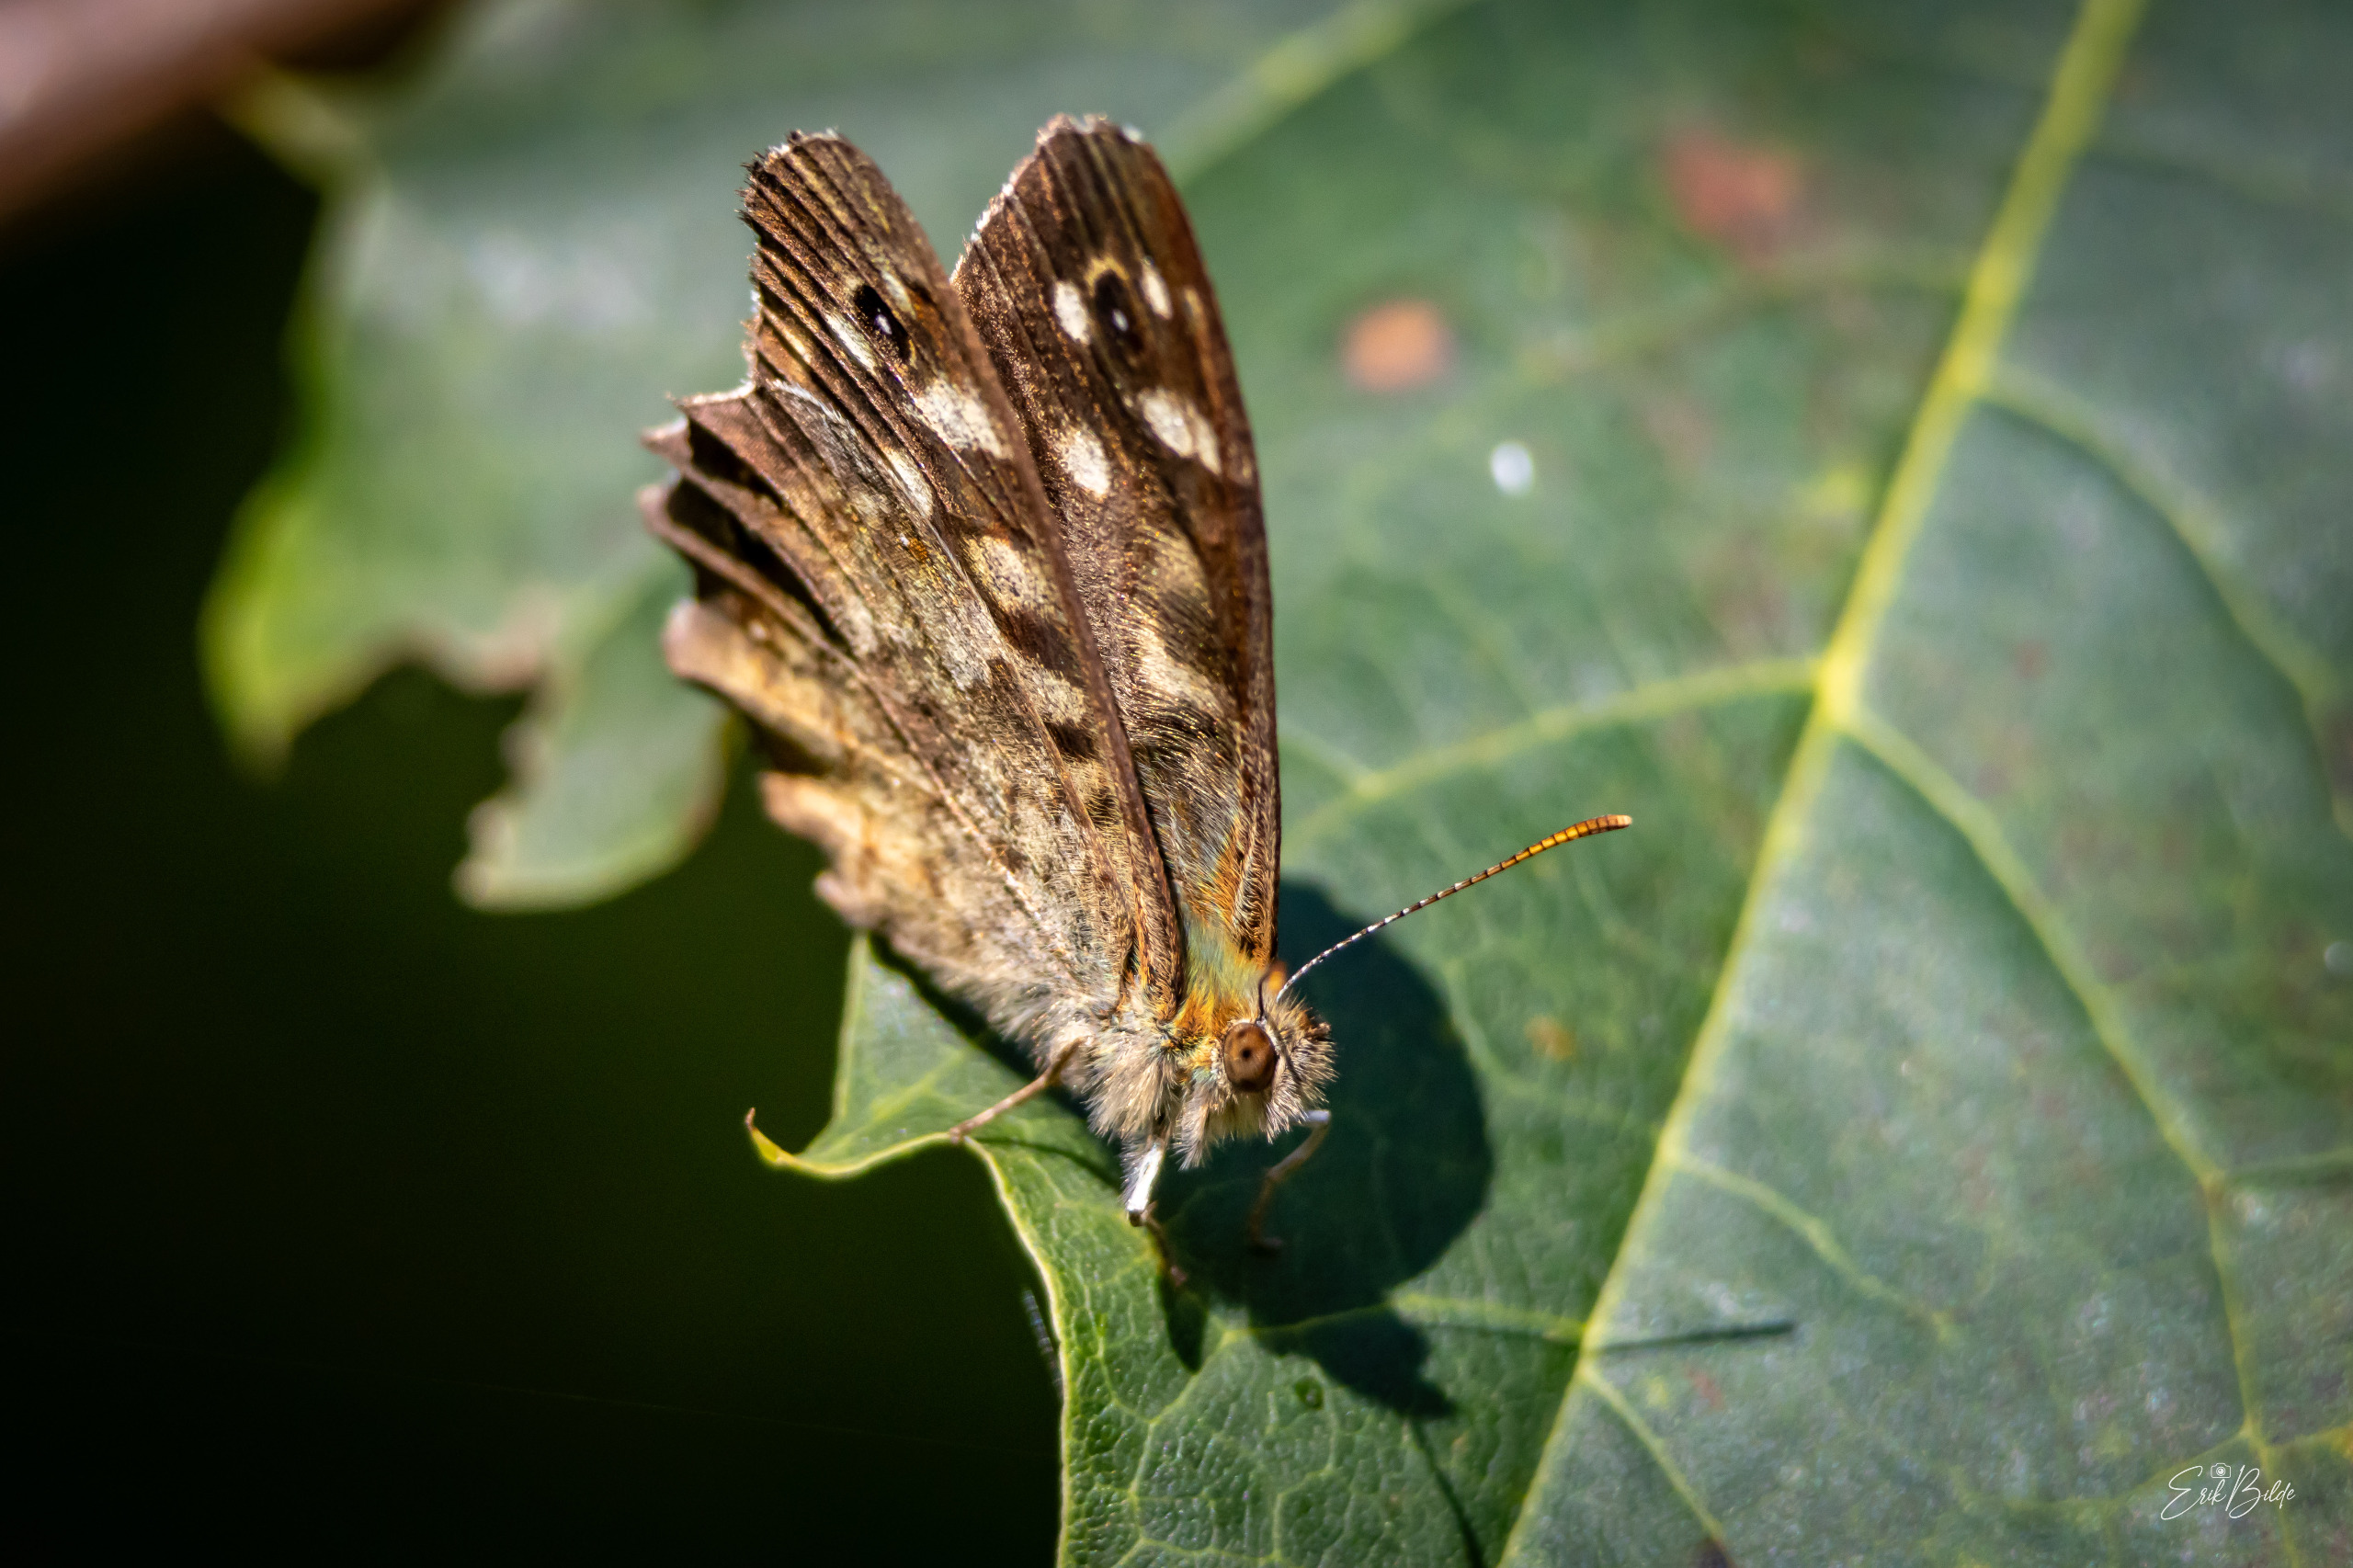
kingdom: Animalia
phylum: Arthropoda
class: Insecta
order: Lepidoptera
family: Nymphalidae
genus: Pararge
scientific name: Pararge aegeria
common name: Skovrandøje
